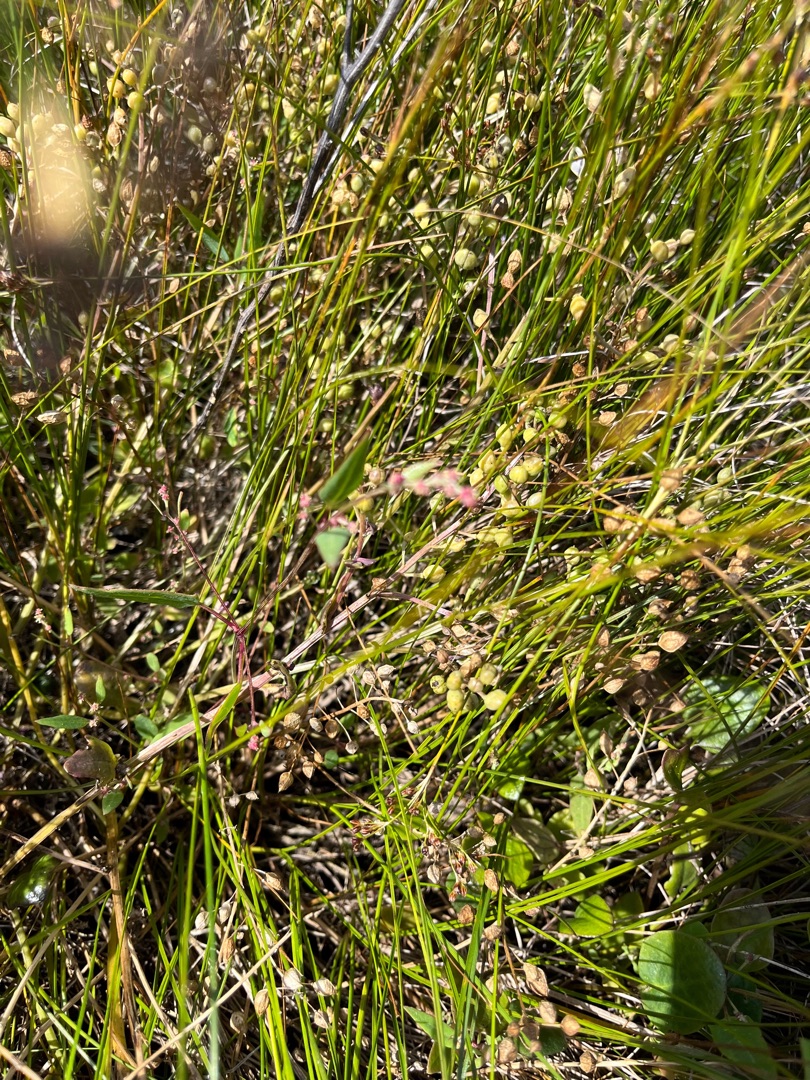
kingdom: Plantae
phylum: Tracheophyta
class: Magnoliopsida
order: Brassicales
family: Brassicaceae
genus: Cochlearia
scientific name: Cochlearia officinalis
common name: Læge-kokleare (underart)
